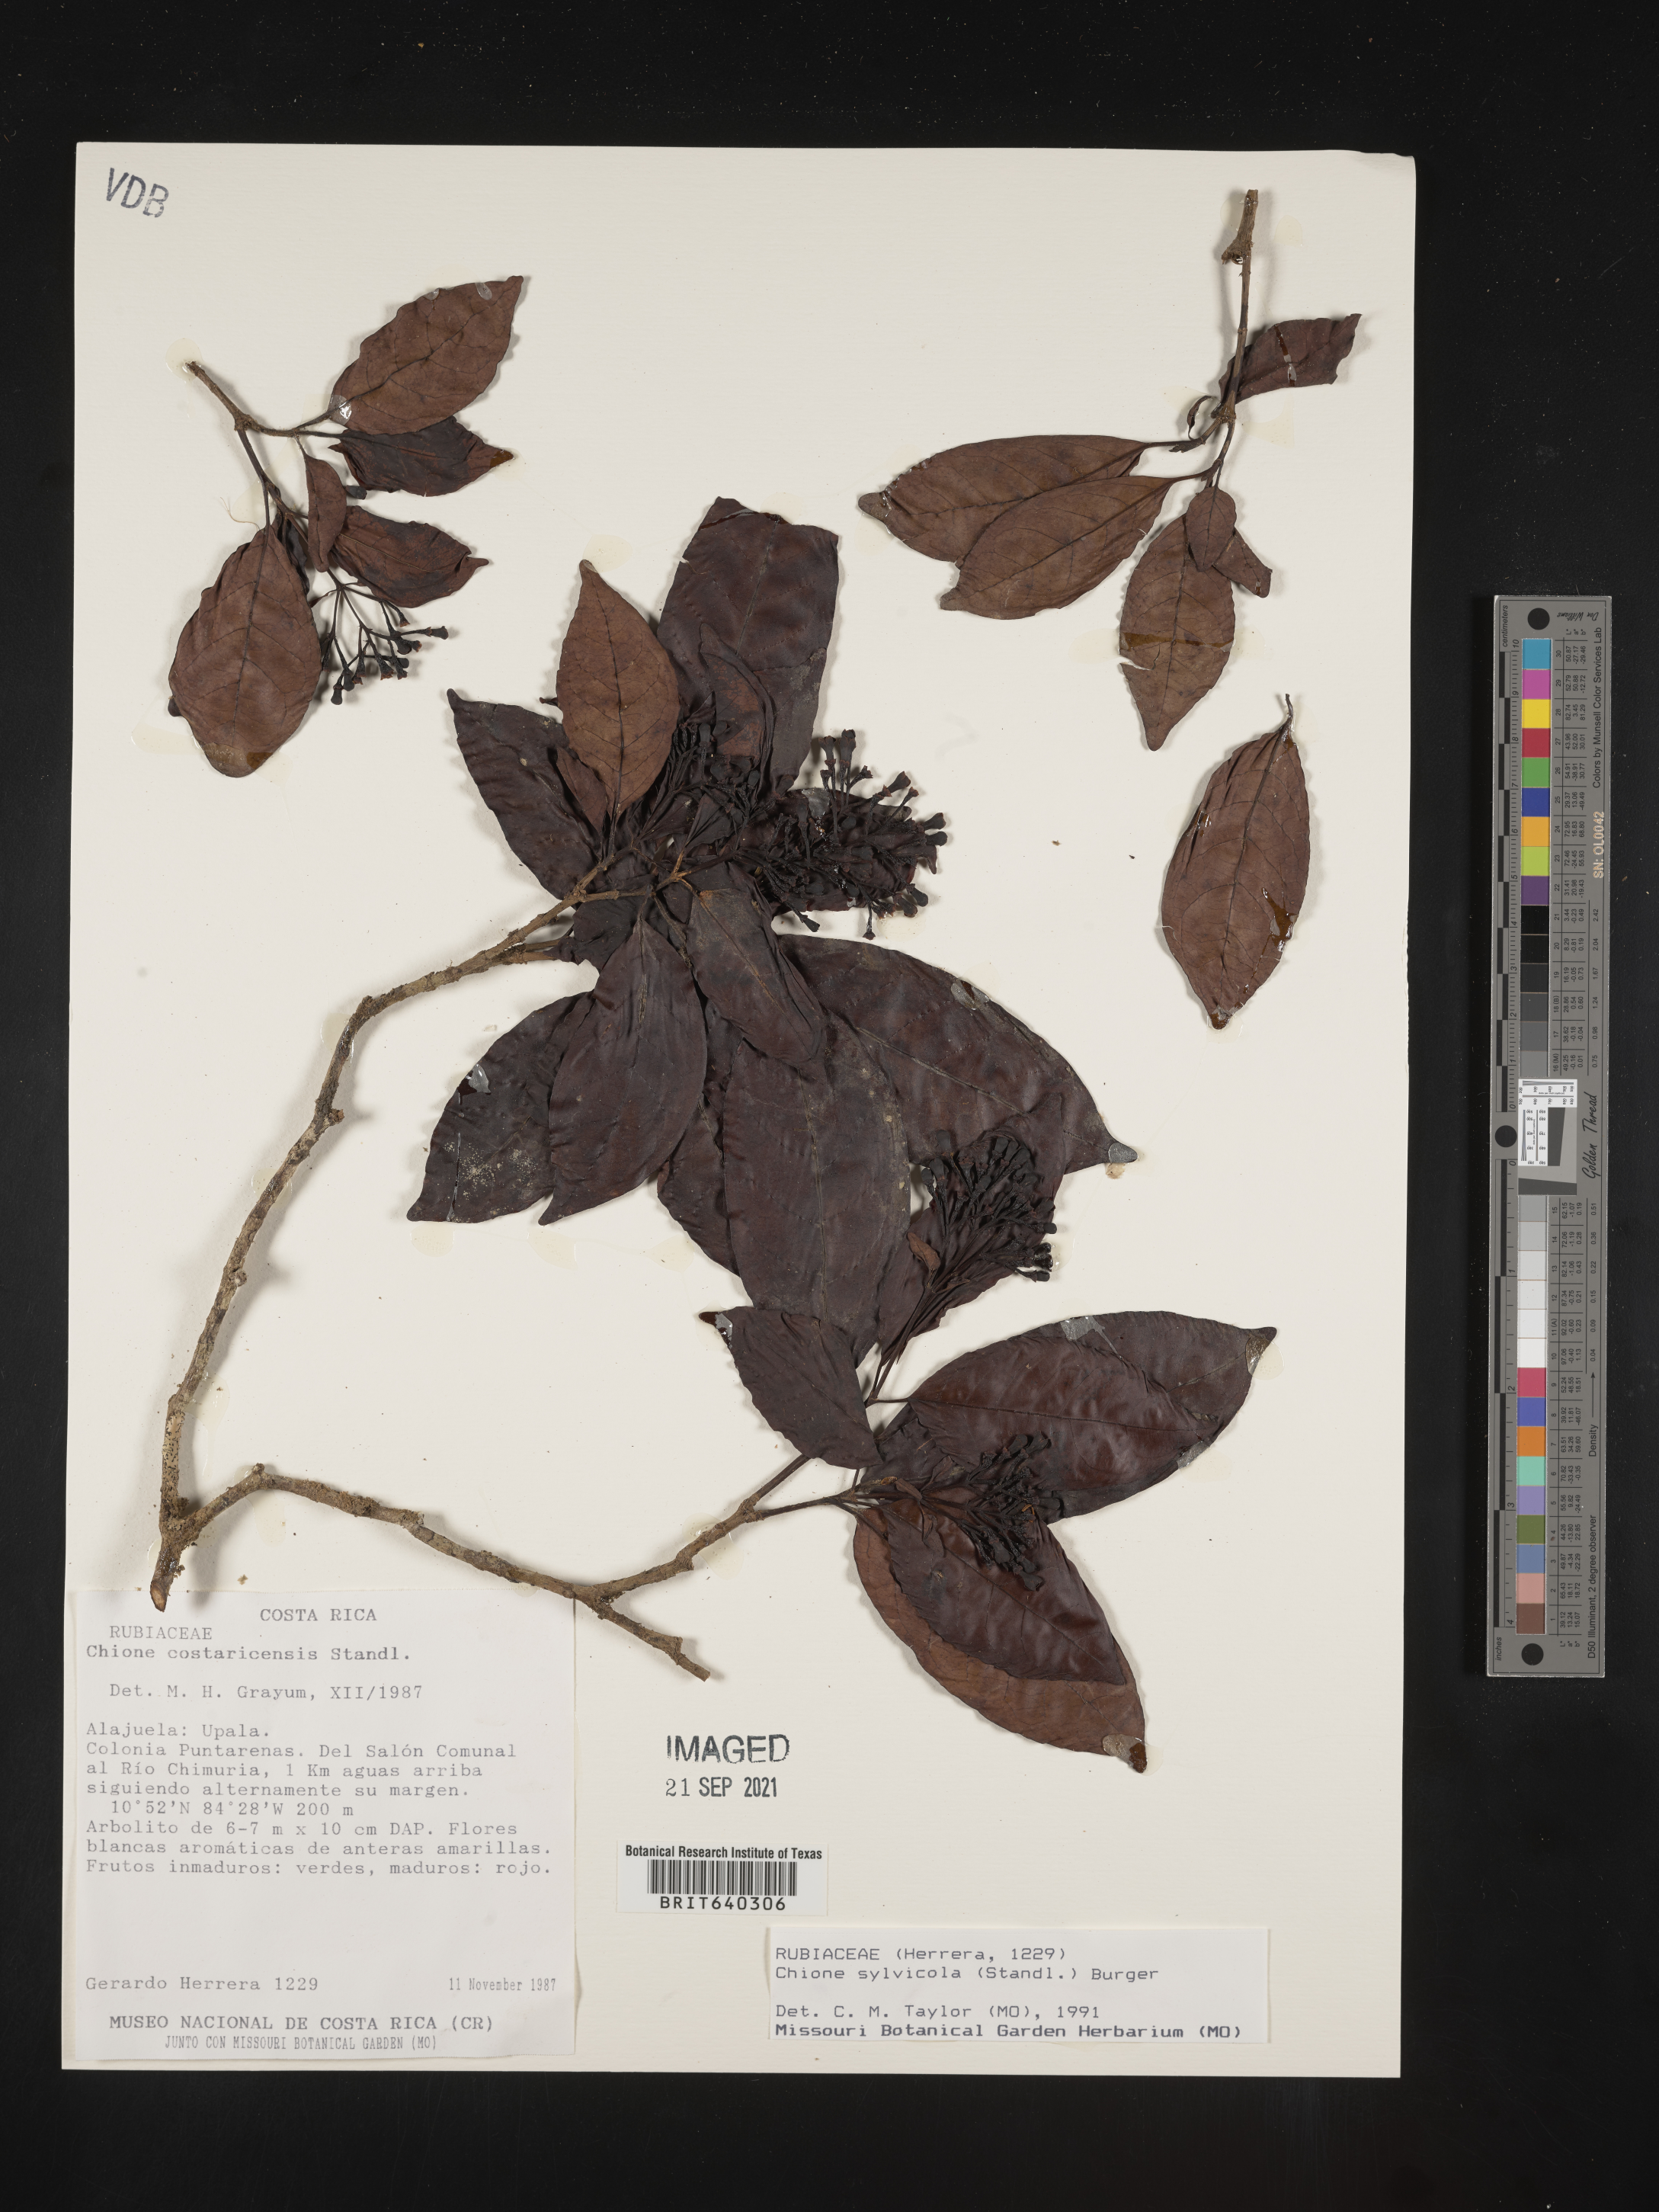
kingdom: Plantae
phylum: Tracheophyta
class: Magnoliopsida
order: Gentianales
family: Rubiaceae
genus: Chione
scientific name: Chione
